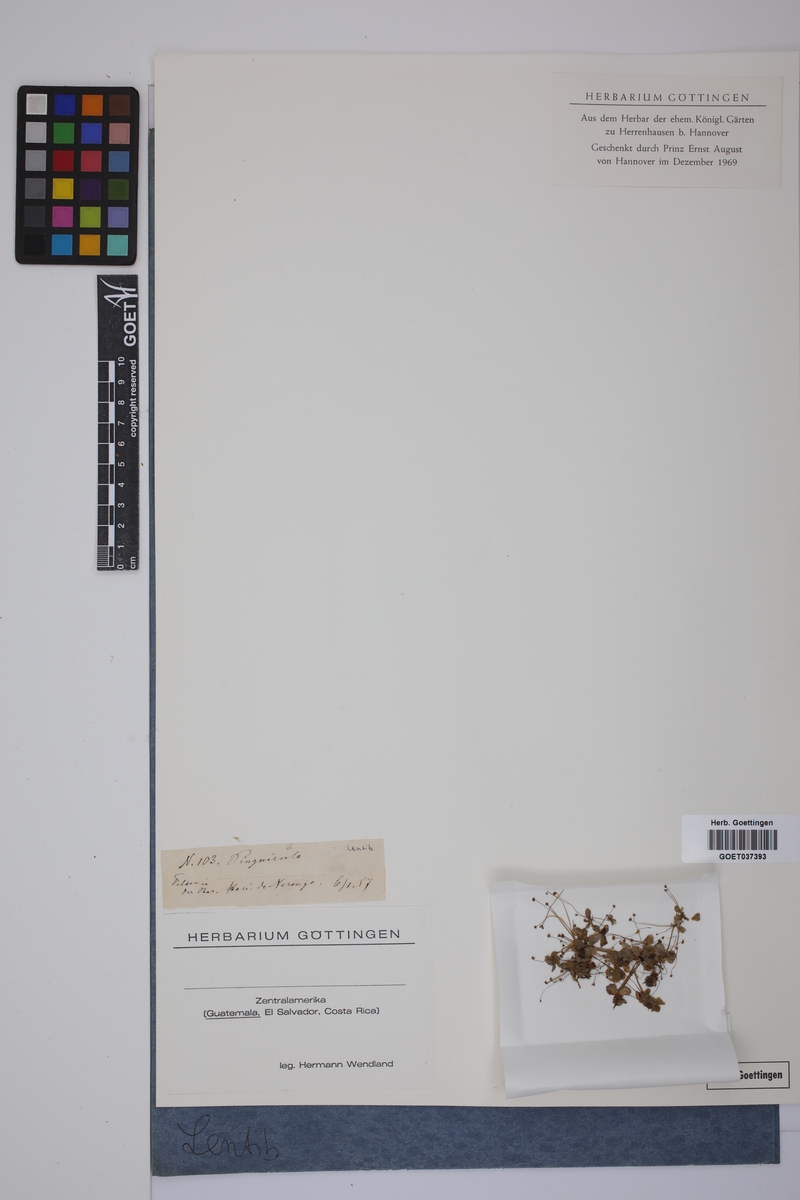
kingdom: Plantae
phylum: Tracheophyta
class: Magnoliopsida
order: Lamiales
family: Lentibulariaceae
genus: Pinguicula
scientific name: Pinguicula
